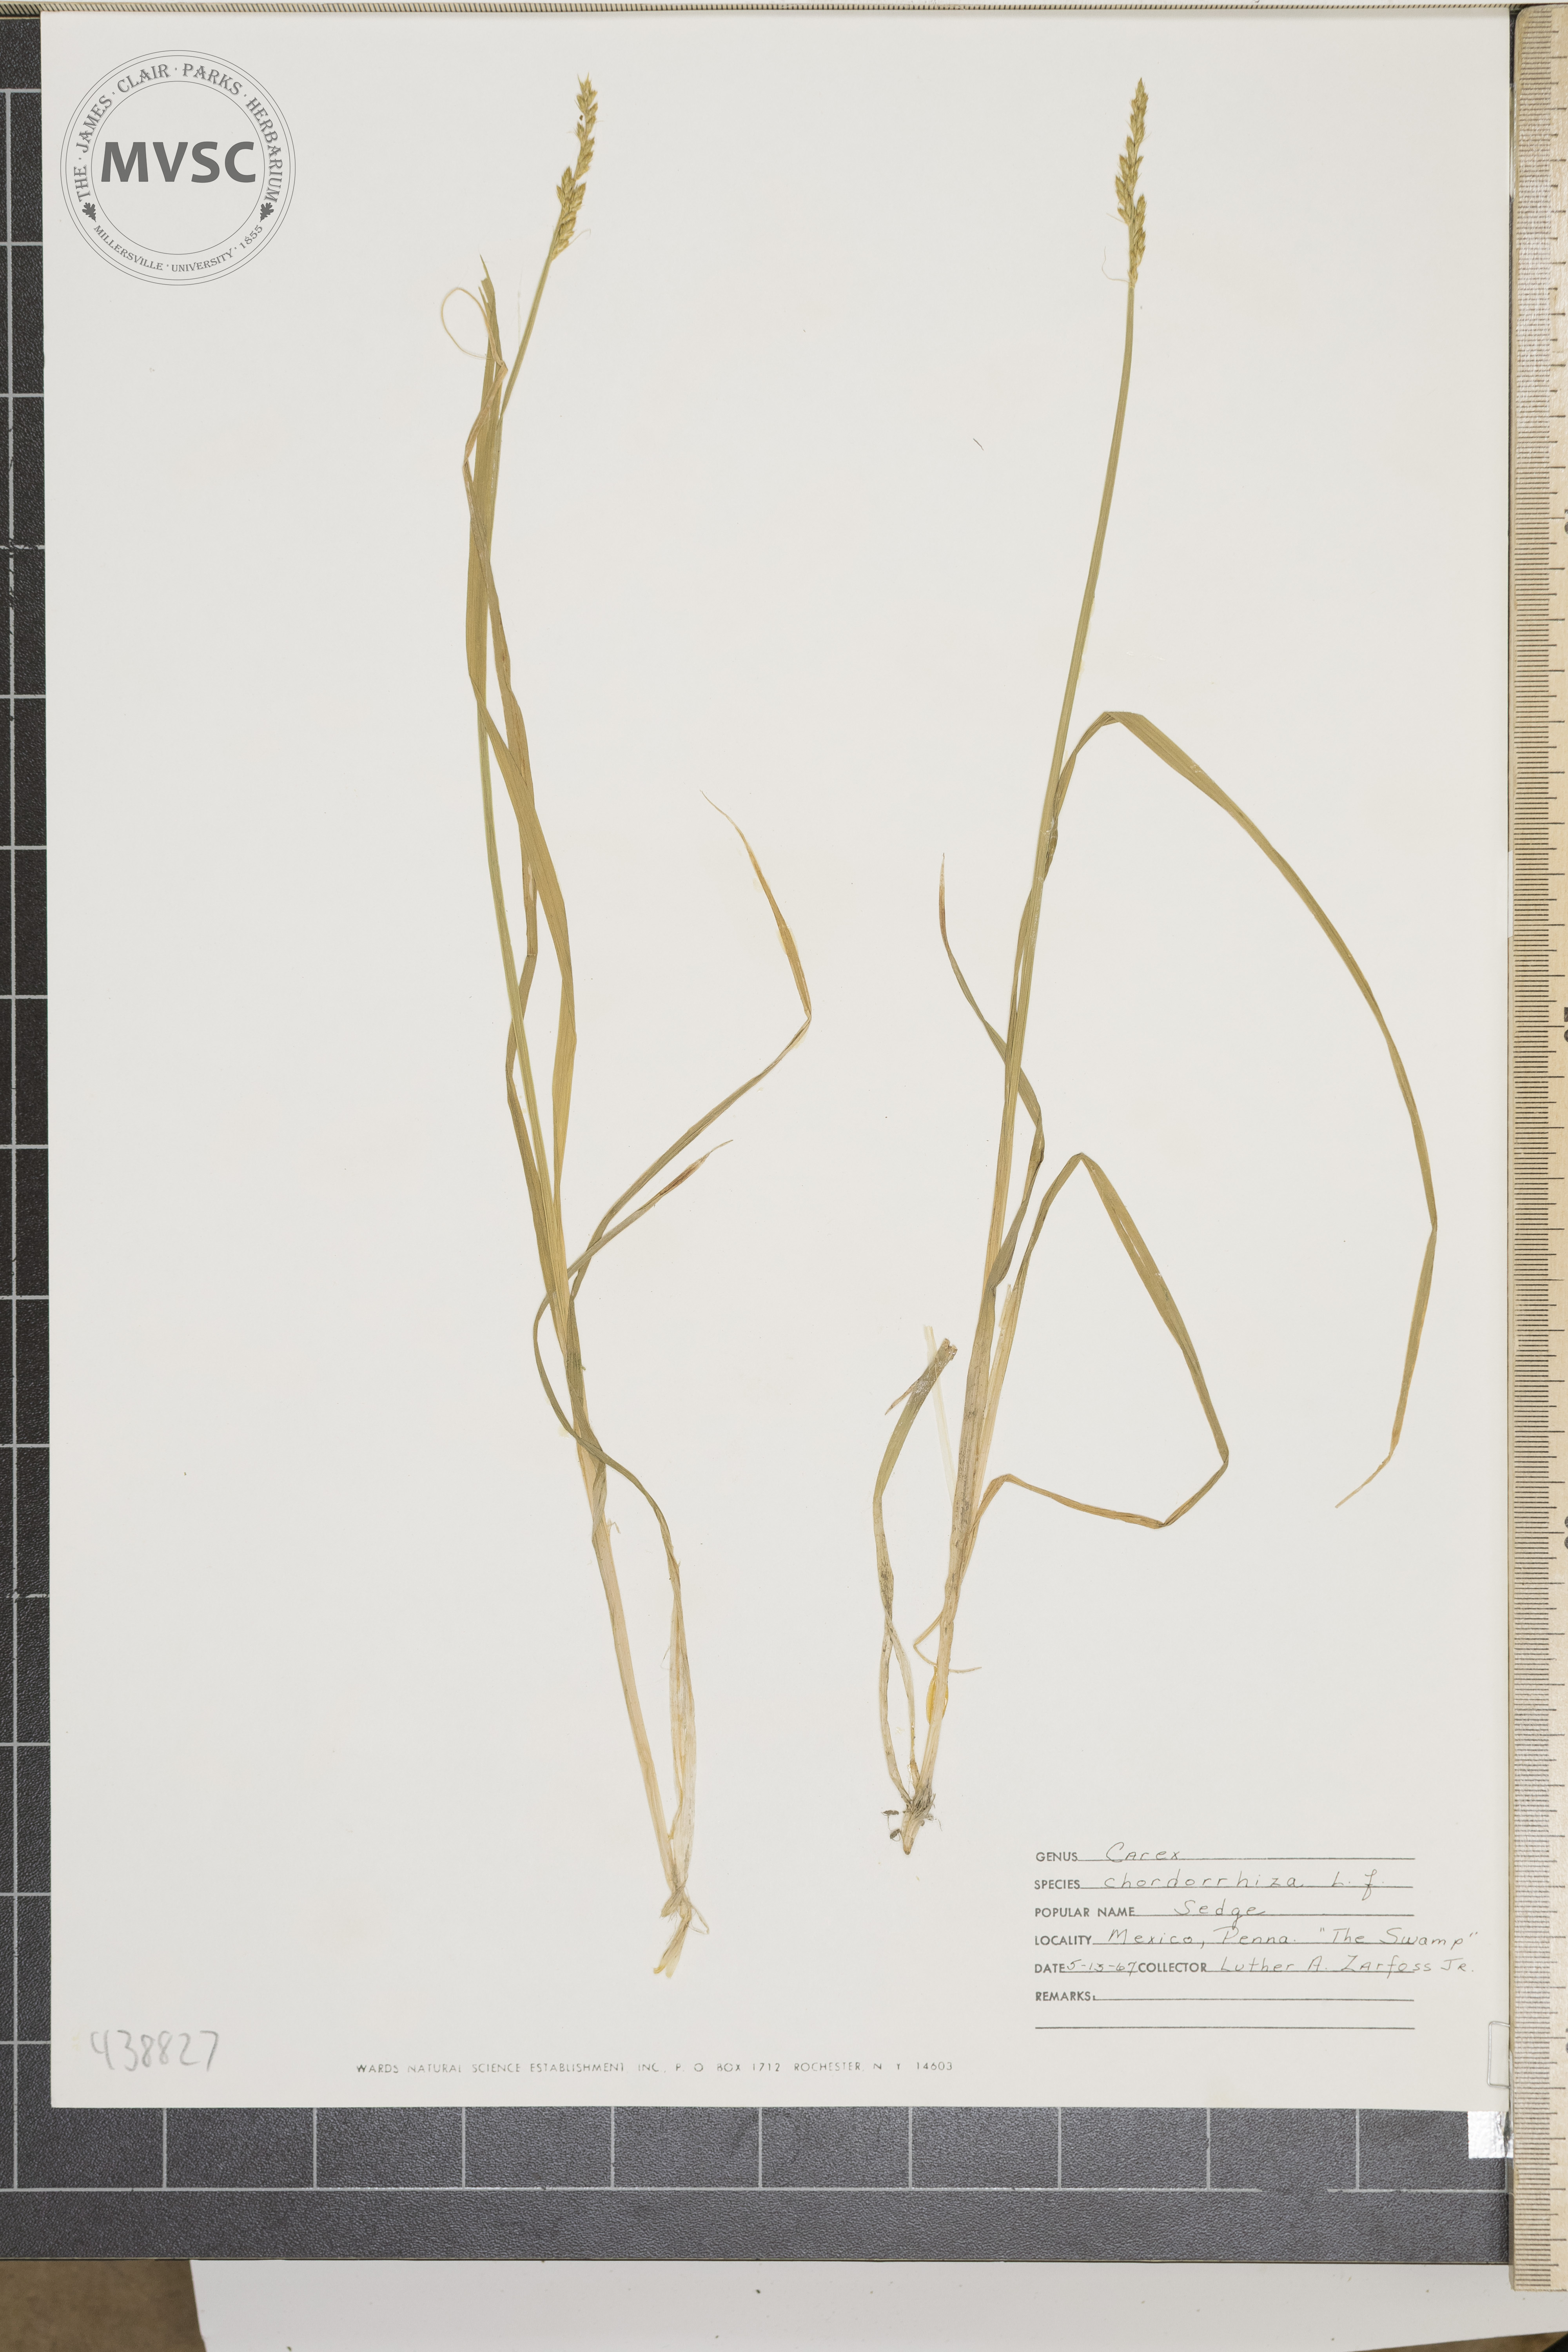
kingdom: Plantae
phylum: Tracheophyta
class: Liliopsida
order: Poales
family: Cyperaceae
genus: Carex
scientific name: Carex stipata
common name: Awl-fruited sedge
